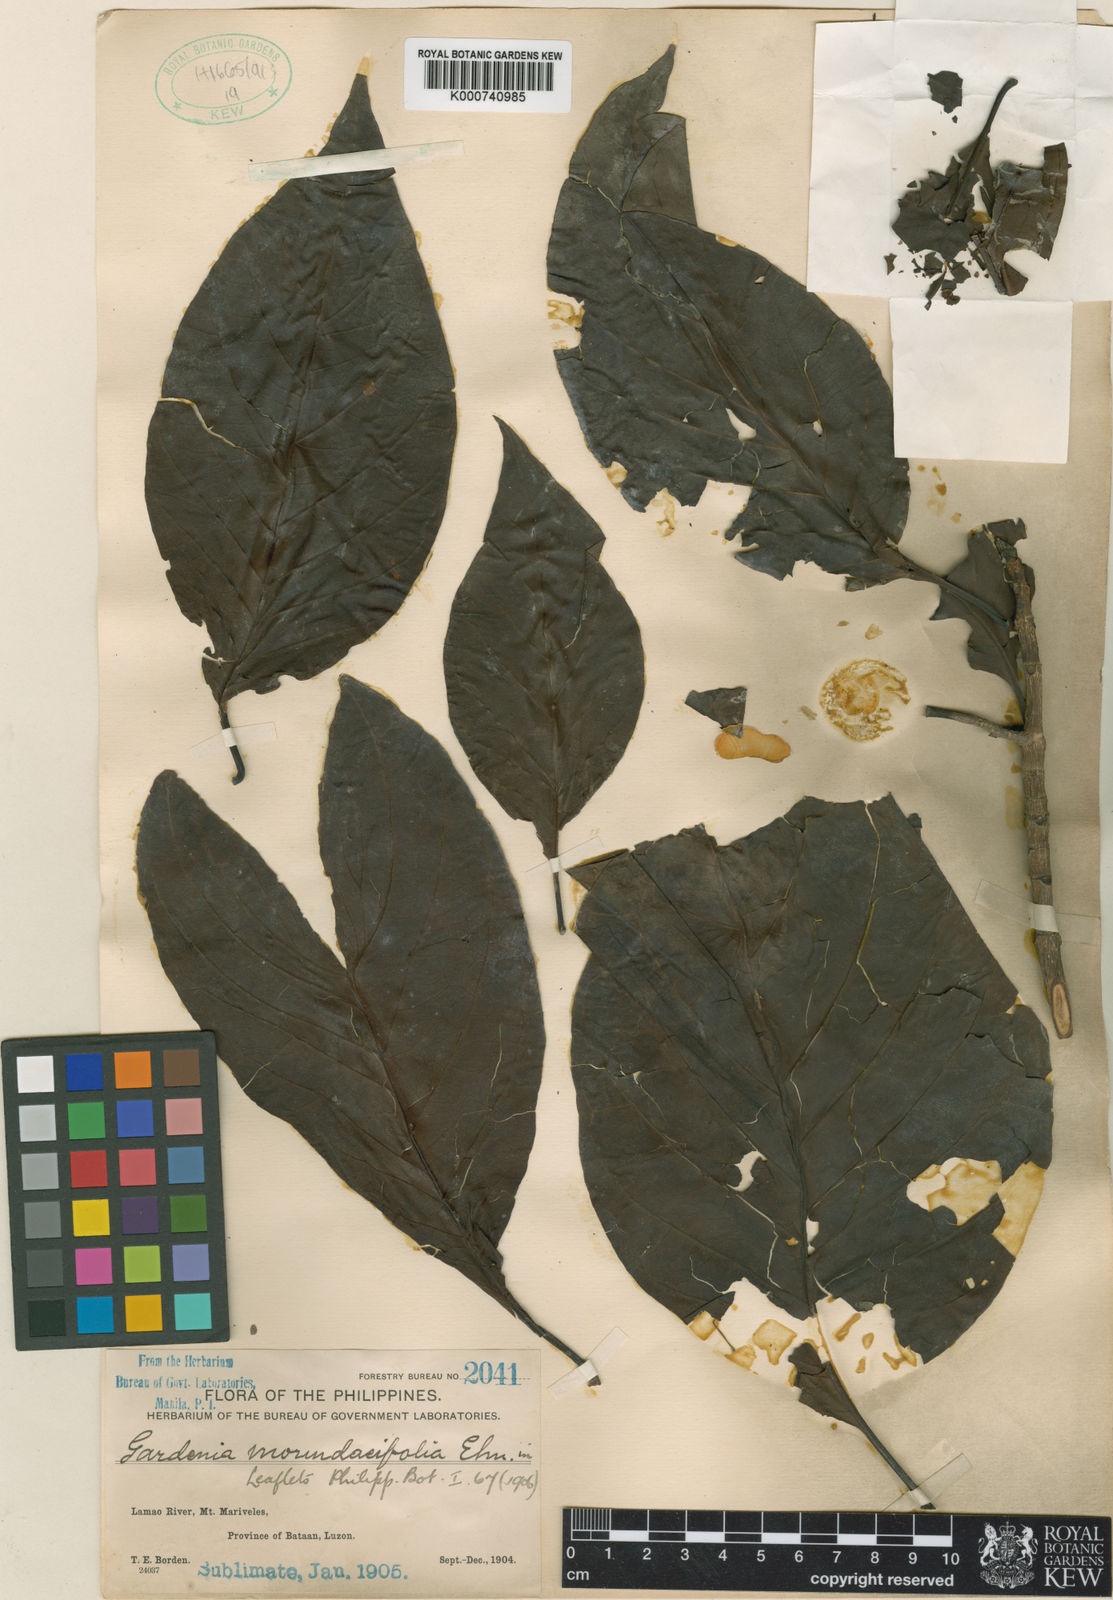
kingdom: Plantae
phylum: Tracheophyta
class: Magnoliopsida
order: Gentianales
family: Rubiaceae
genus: Vidalasia
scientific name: Vidalasia morindifolia
